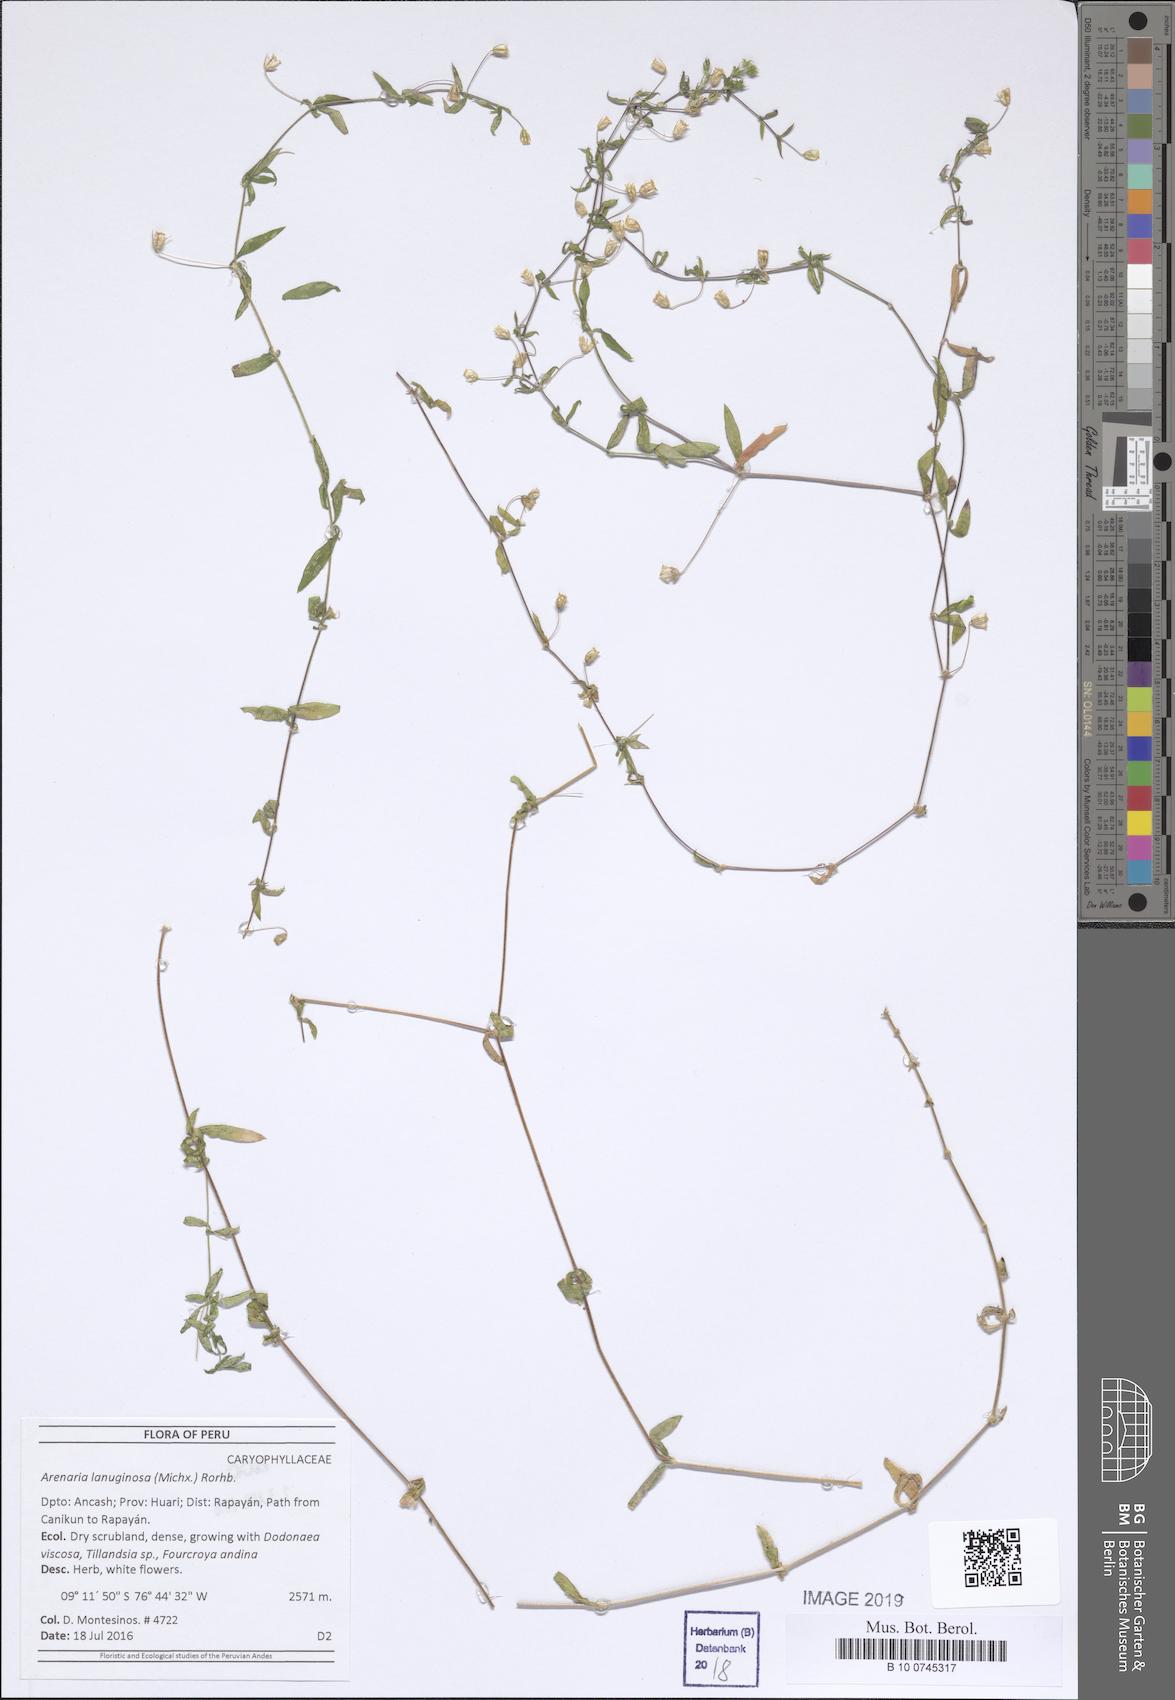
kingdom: Plantae
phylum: Tracheophyta
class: Magnoliopsida
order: Caryophyllales
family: Caryophyllaceae
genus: Arenaria
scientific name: Arenaria lanuginosa
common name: Spread sandwort
